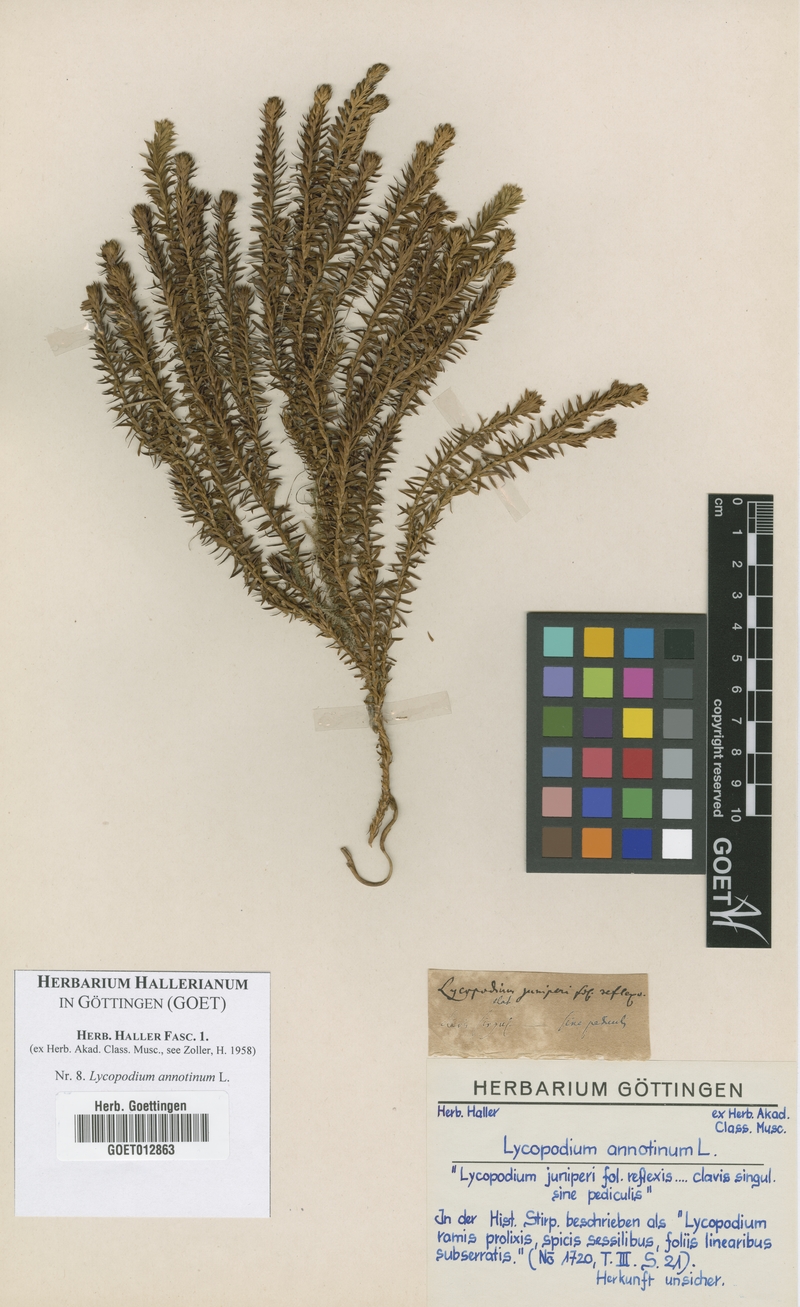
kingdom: Plantae
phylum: Tracheophyta
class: Lycopodiopsida
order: Lycopodiales
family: Lycopodiaceae
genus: Spinulum
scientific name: Spinulum annotinum
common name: Interrupted club-moss
